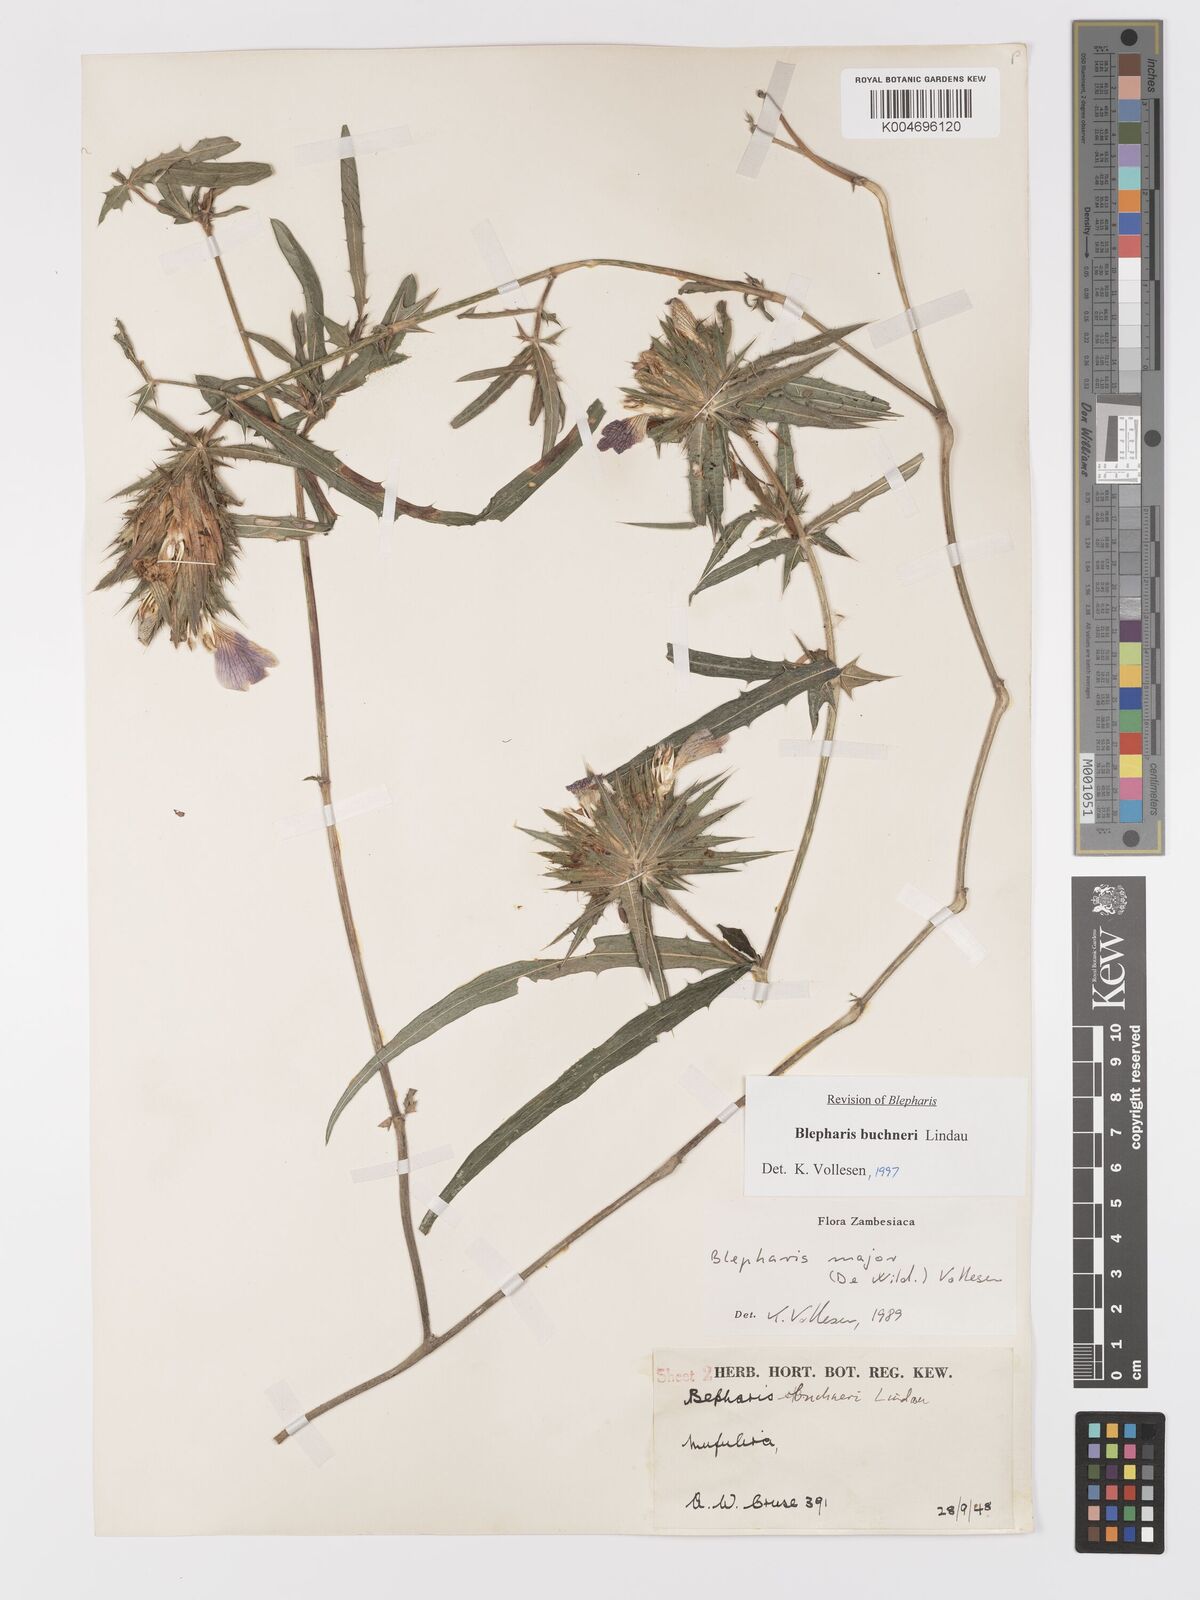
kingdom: Plantae
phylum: Tracheophyta
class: Magnoliopsida
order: Lamiales
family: Acanthaceae
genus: Blepharis
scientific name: Blepharis buchneri
